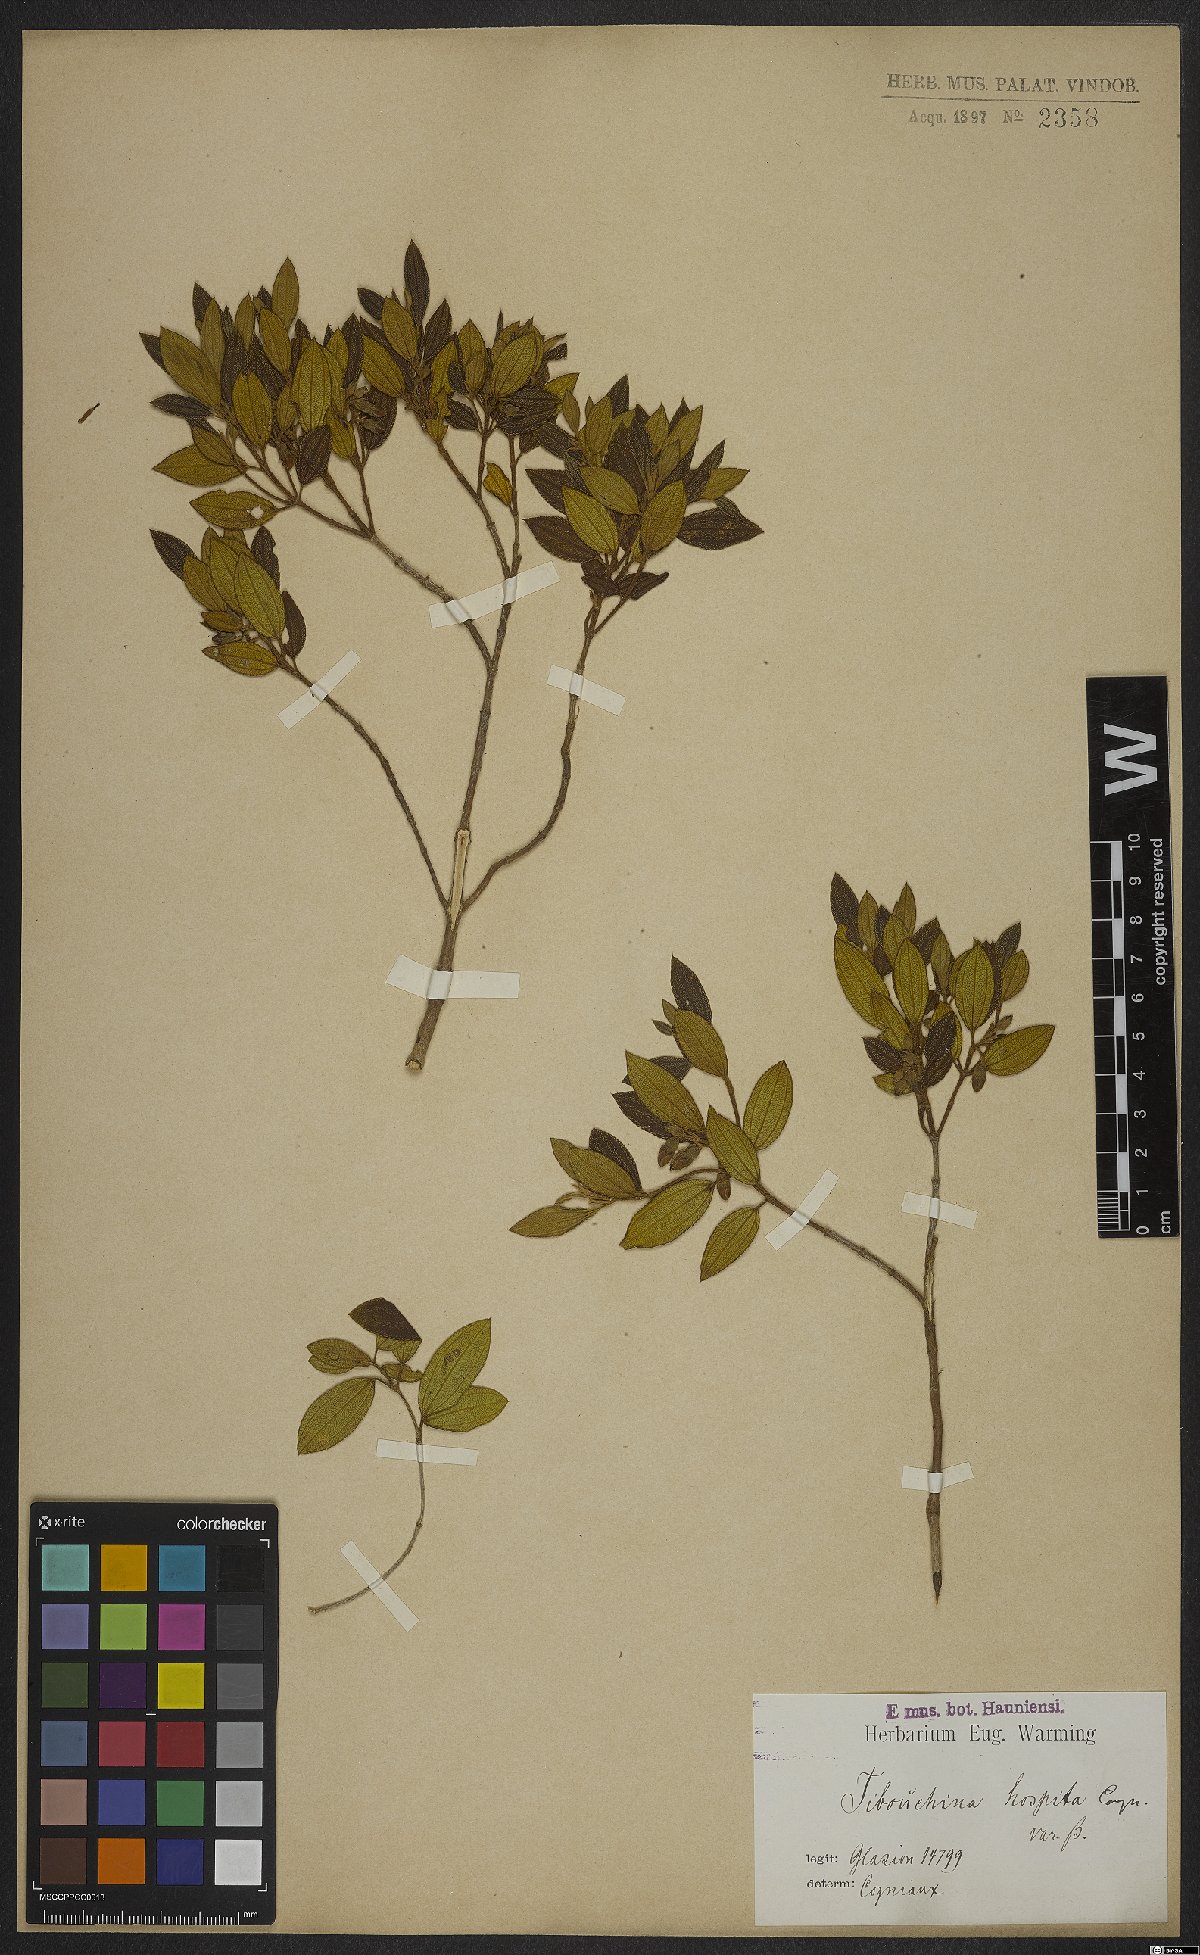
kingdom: Plantae
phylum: Tracheophyta
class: Magnoliopsida
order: Myrtales
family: Melastomataceae
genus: Pleroma
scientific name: Pleroma hospitum
